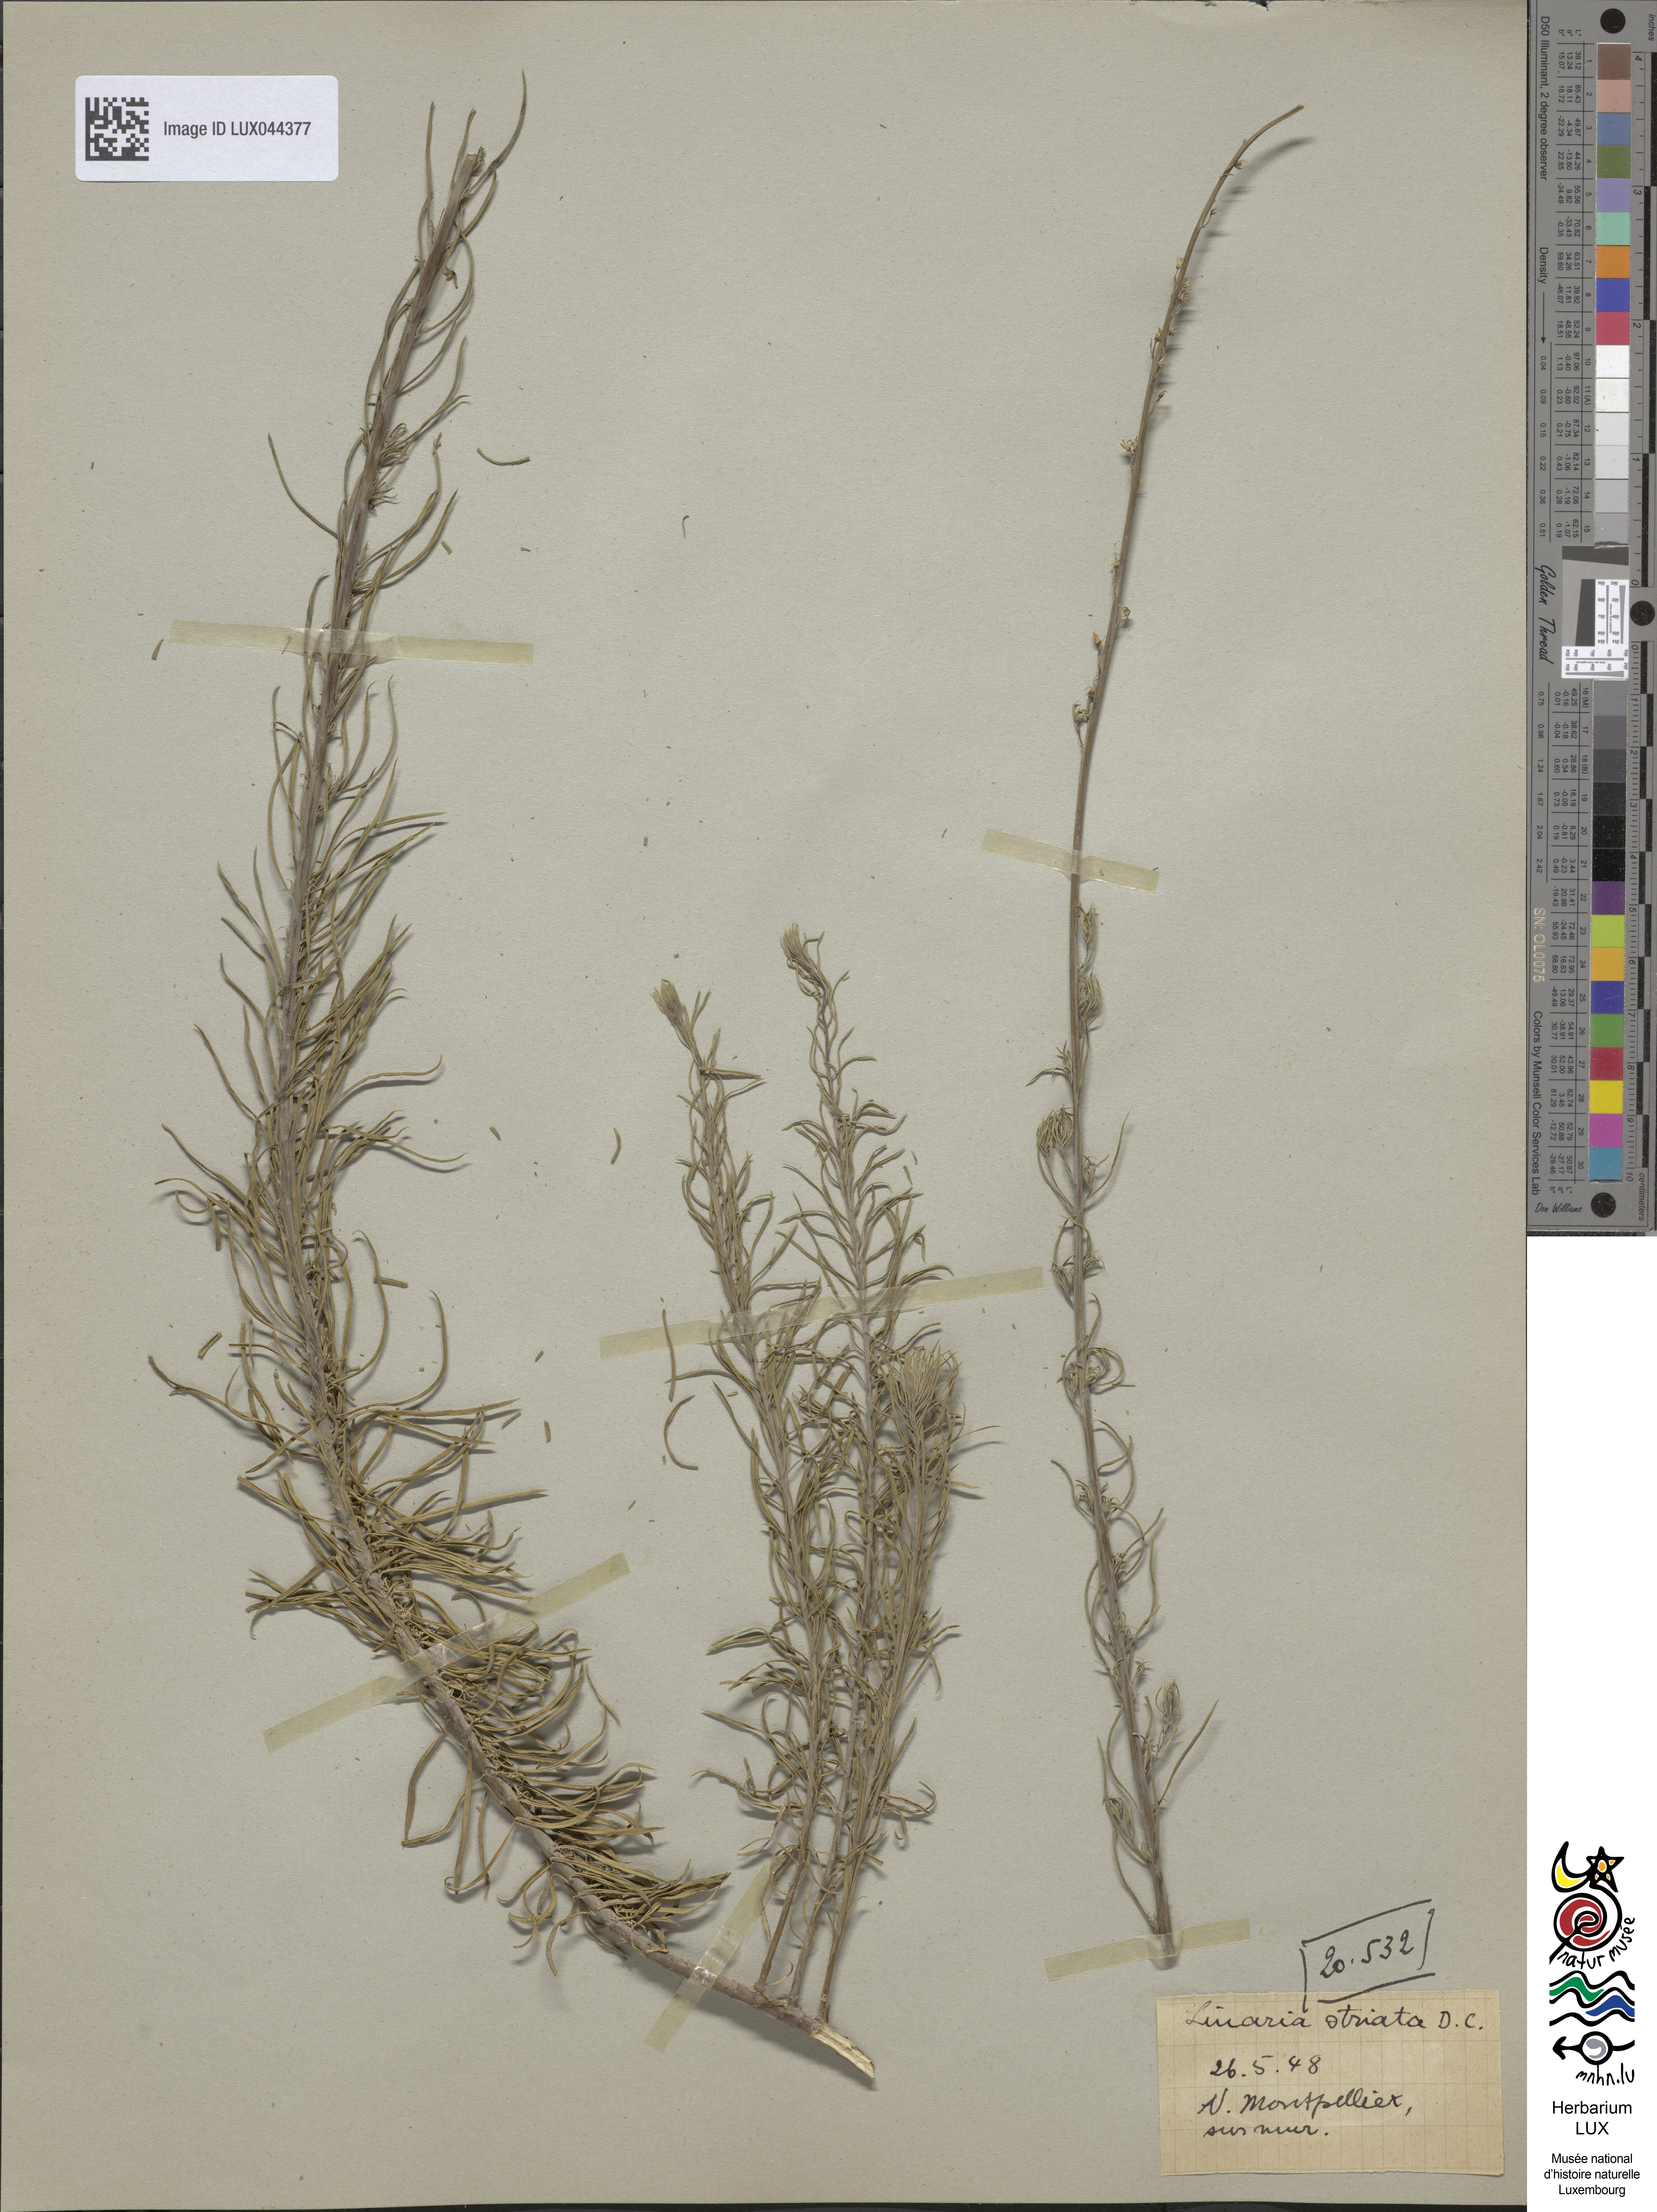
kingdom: Plantae
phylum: Tracheophyta
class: Magnoliopsida
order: Lamiales
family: Plantaginaceae
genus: Linaria
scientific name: Linaria repens
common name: Pale toadflax
